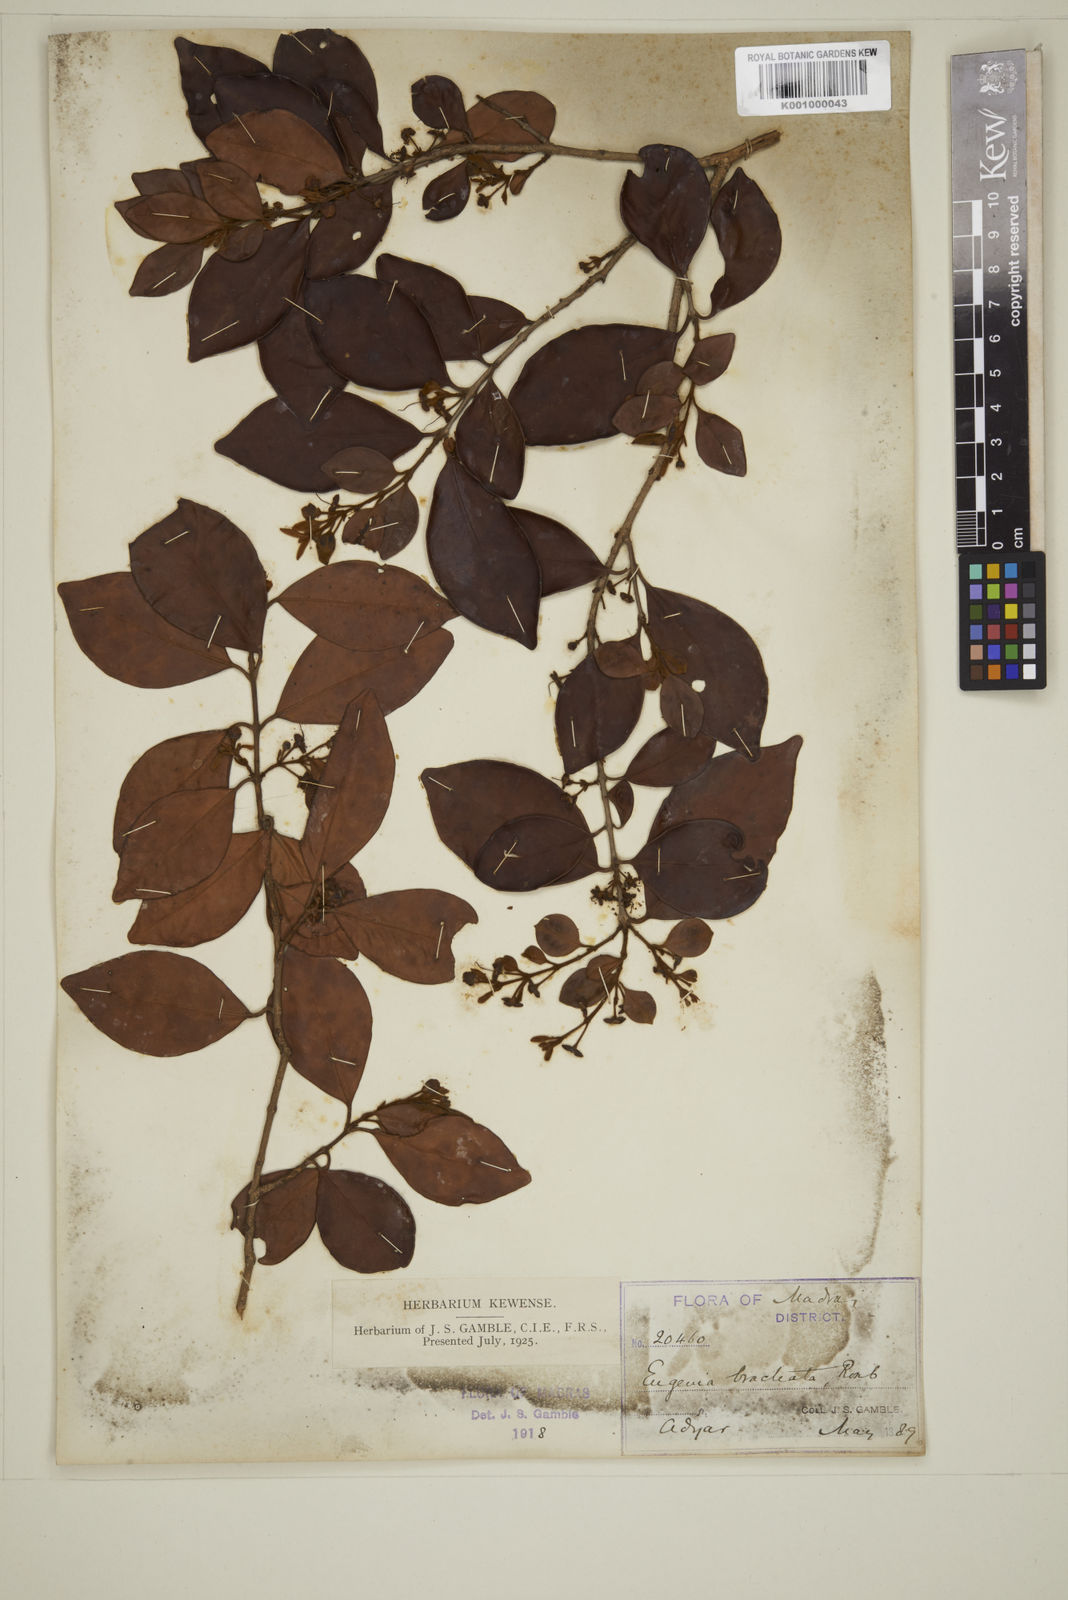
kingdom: Plantae
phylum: Tracheophyta
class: Magnoliopsida
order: Myrtales
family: Myrtaceae
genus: Myrcia
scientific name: Myrcia bracteata
